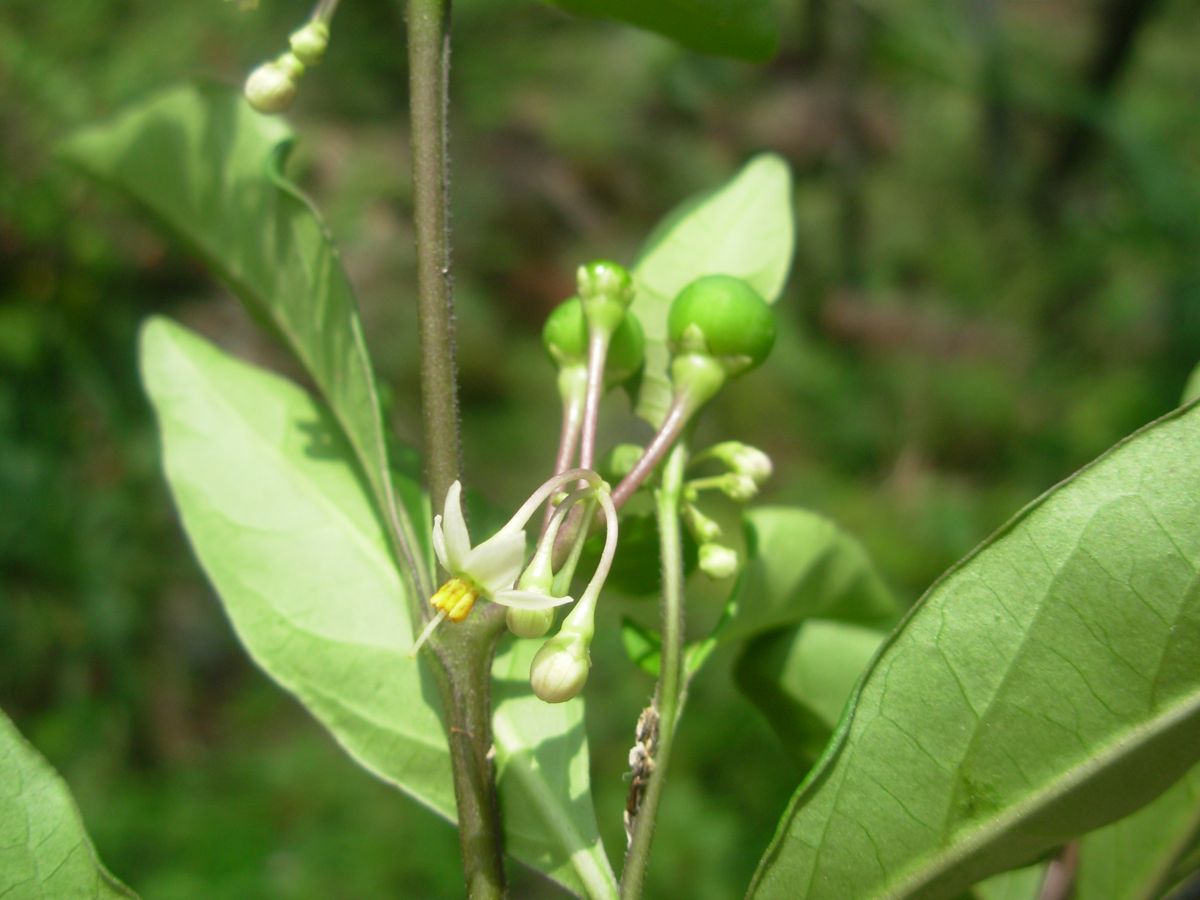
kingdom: Plantae
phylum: Tracheophyta
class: Magnoliopsida
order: Solanales
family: Solanaceae
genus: Solanum
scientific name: Solanum diphyllum
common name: Twoleaf nightshade
